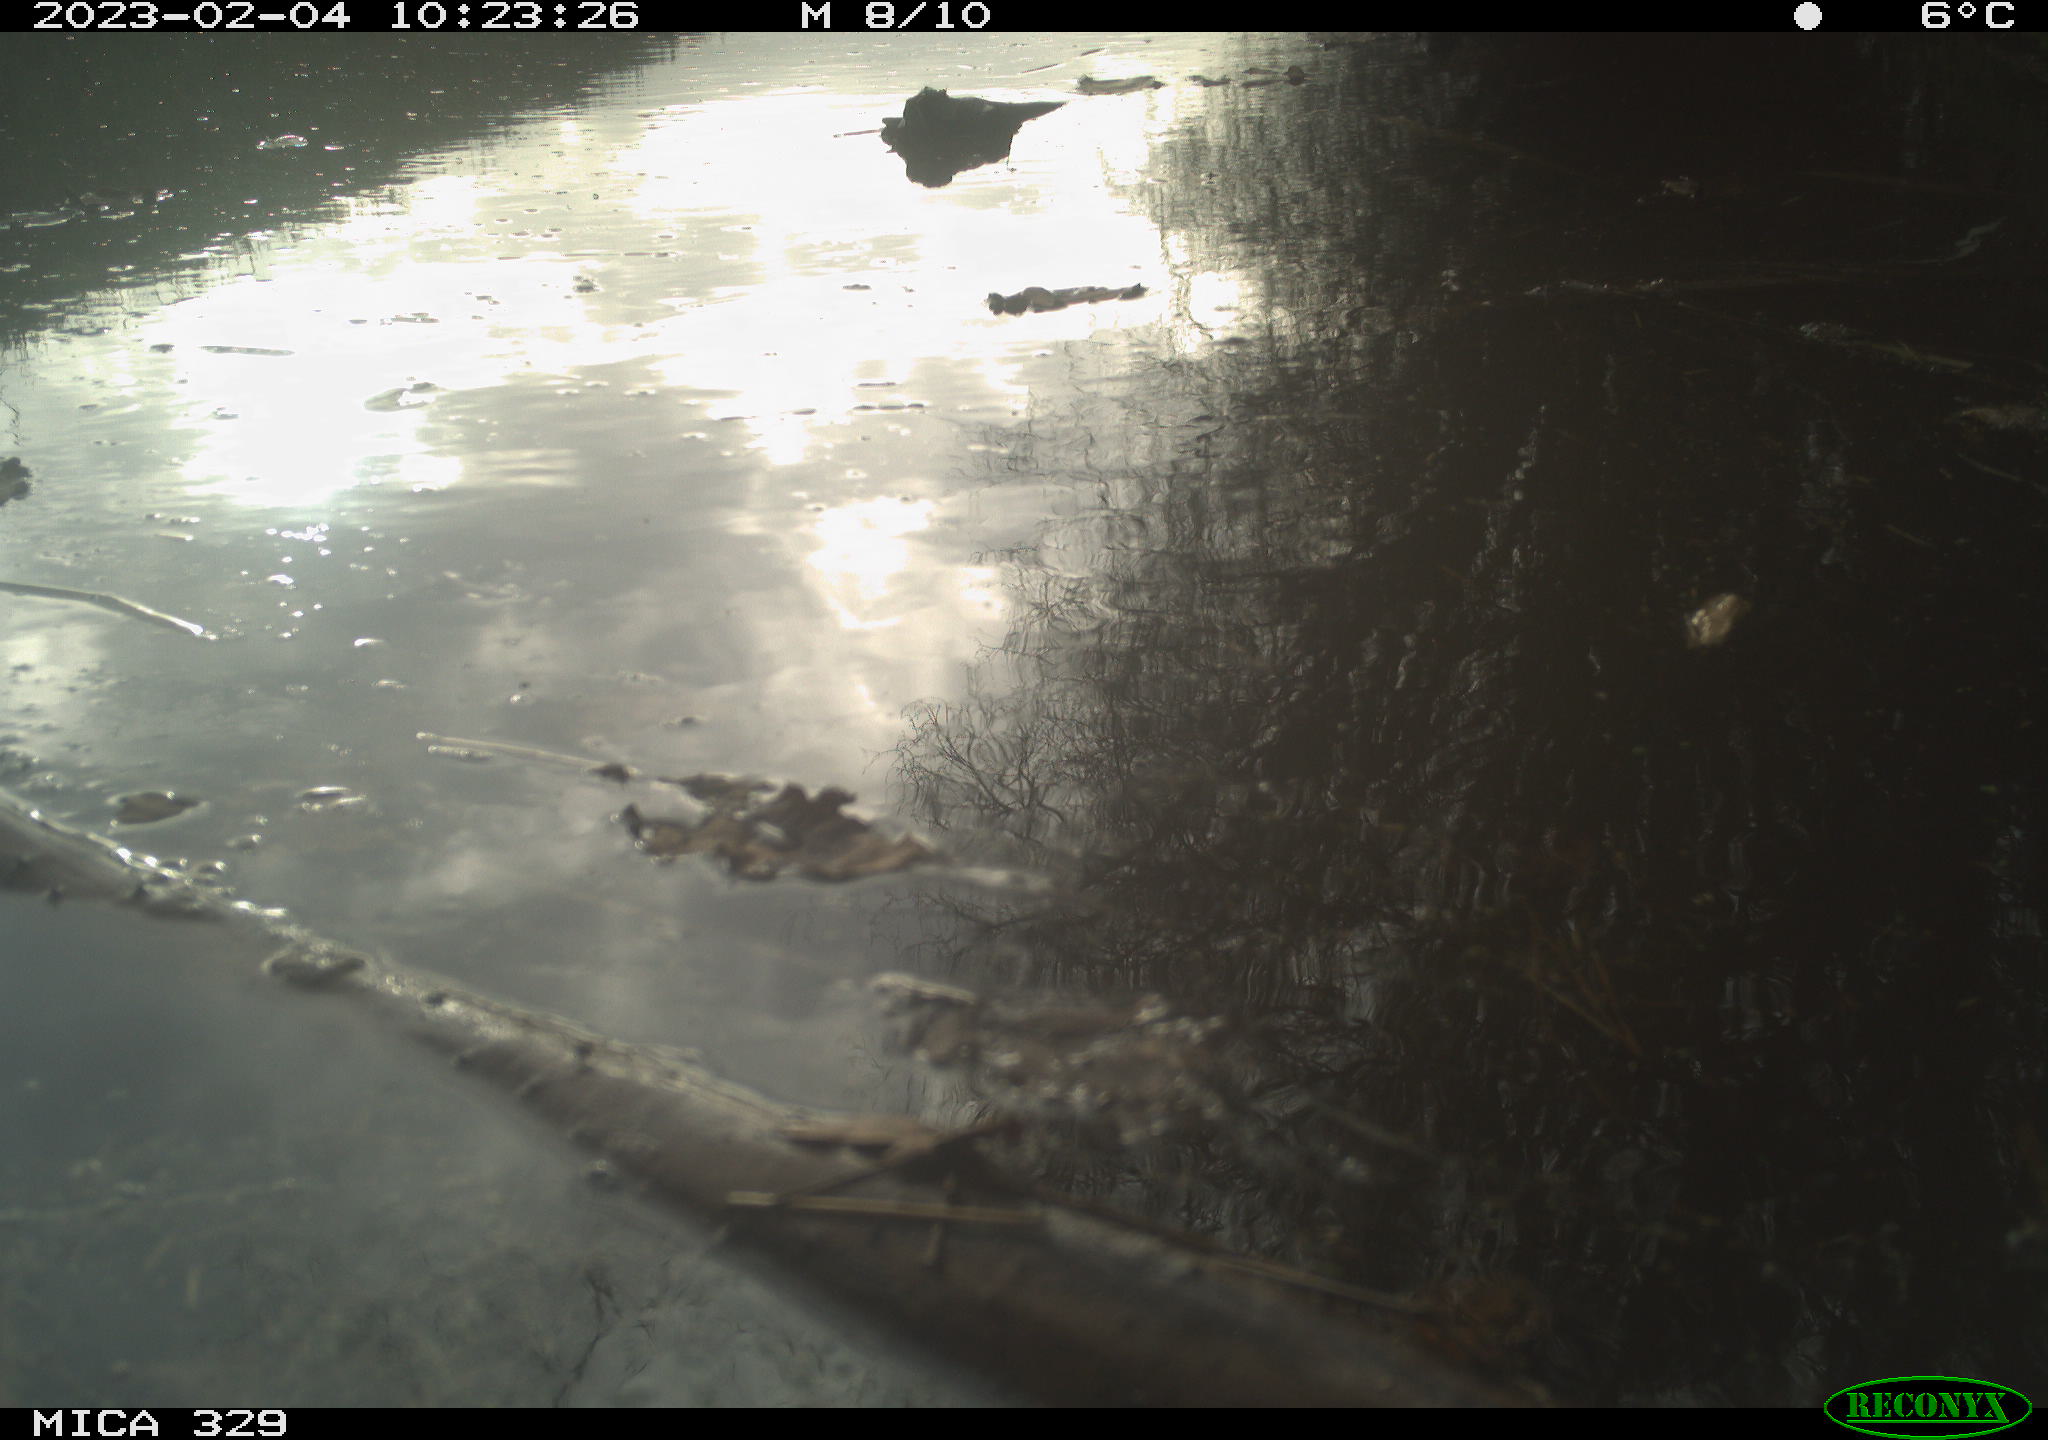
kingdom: Animalia
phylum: Chordata
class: Aves
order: Passeriformes
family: Troglodytidae
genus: Troglodytes
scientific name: Troglodytes troglodytes
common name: Eurasian wren
